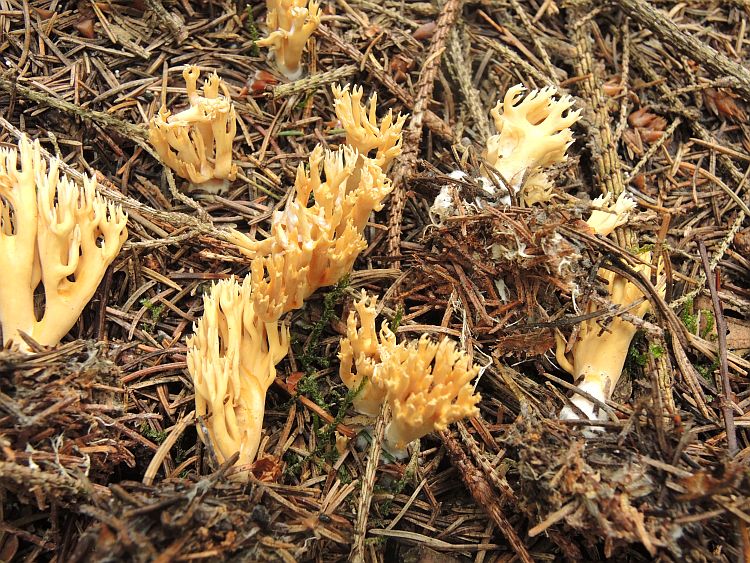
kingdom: Fungi
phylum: Basidiomycota
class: Agaricomycetes
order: Gomphales
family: Gomphaceae
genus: Phaeoclavulina
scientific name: Phaeoclavulina flaccida
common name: spinkel koralsvamp
